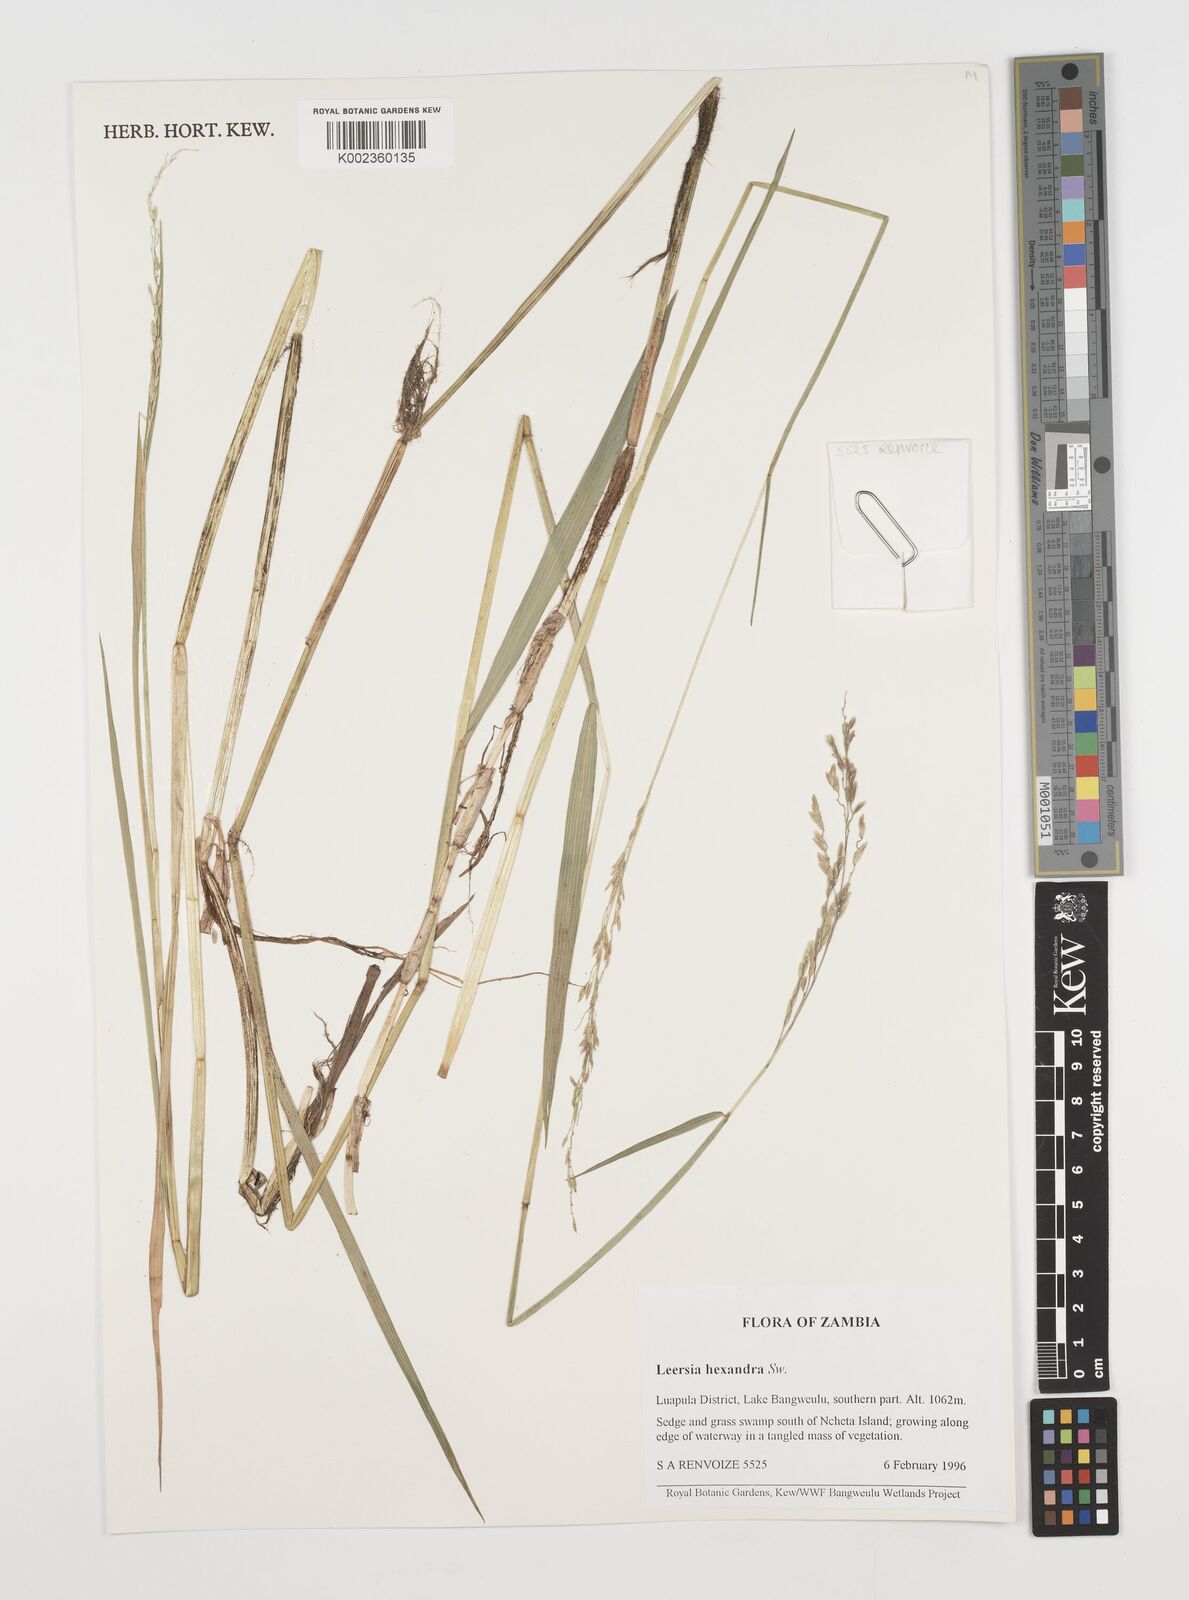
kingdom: Plantae
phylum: Tracheophyta
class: Liliopsida
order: Poales
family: Poaceae
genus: Leersia
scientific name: Leersia hexandra
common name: Southern cut grass
